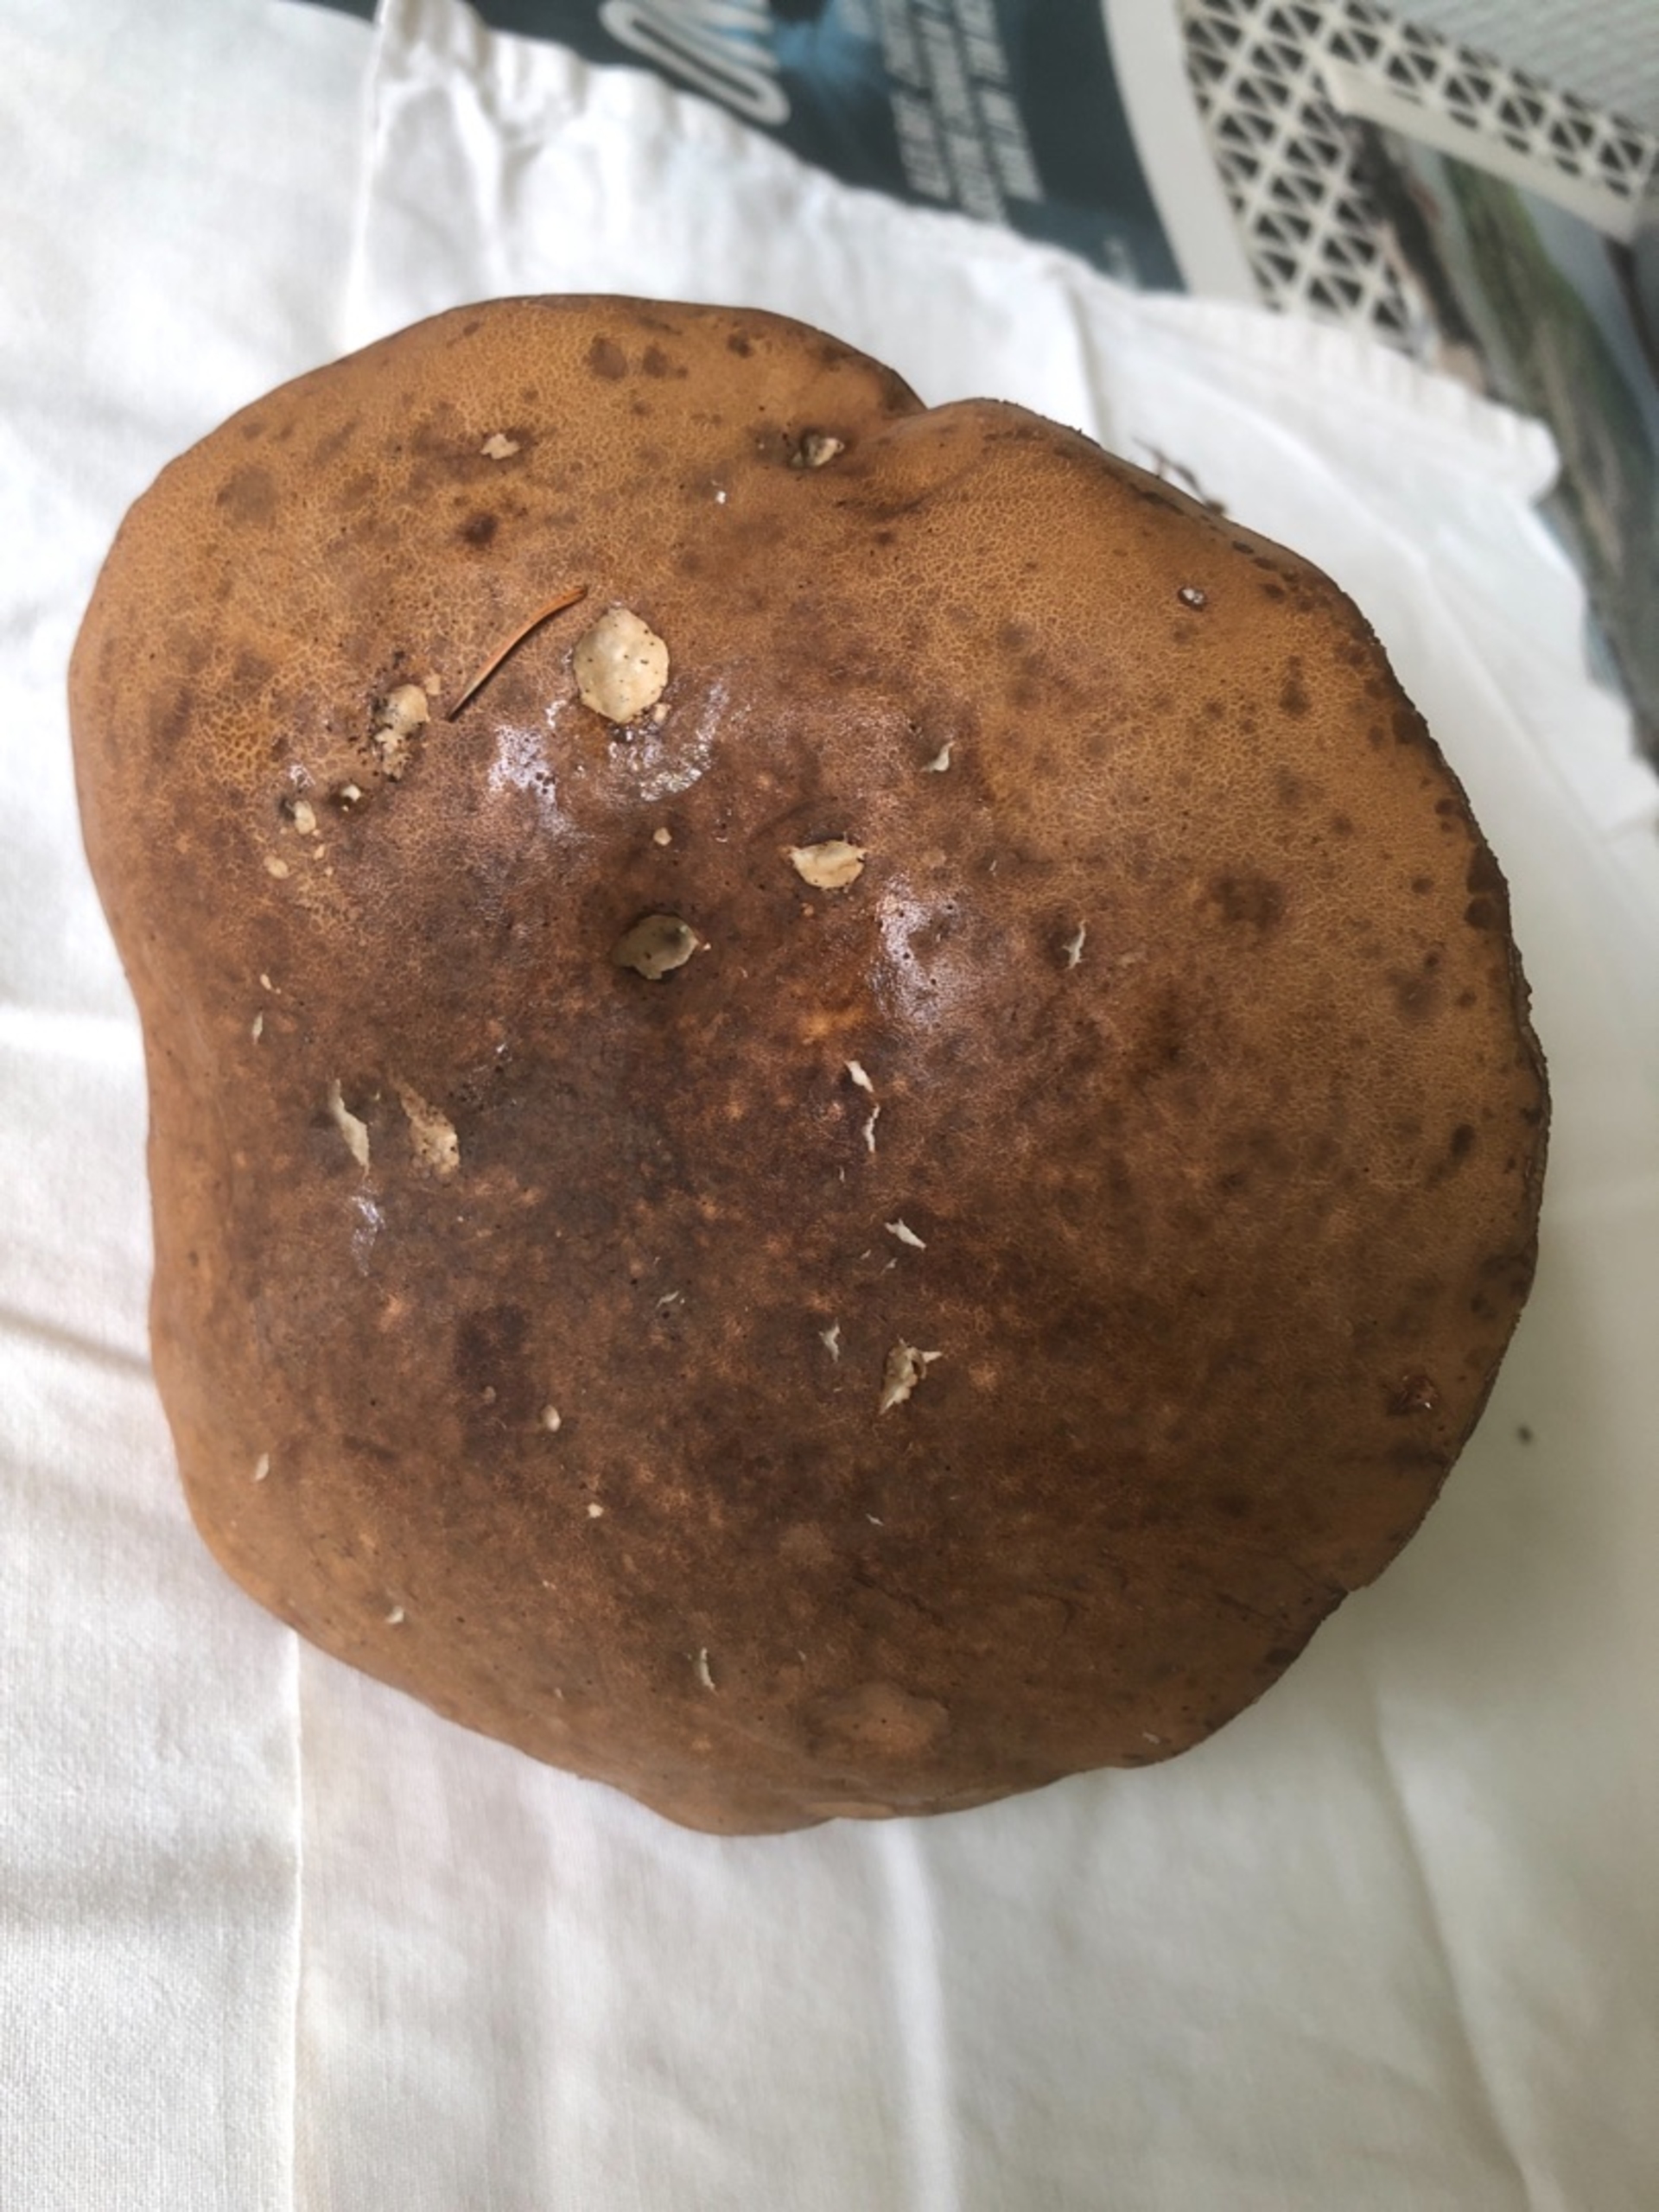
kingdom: Fungi
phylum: Basidiomycota
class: Agaricomycetes
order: Boletales
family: Boletaceae
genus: Tylopilus
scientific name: Tylopilus felleus
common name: Galderørhat
